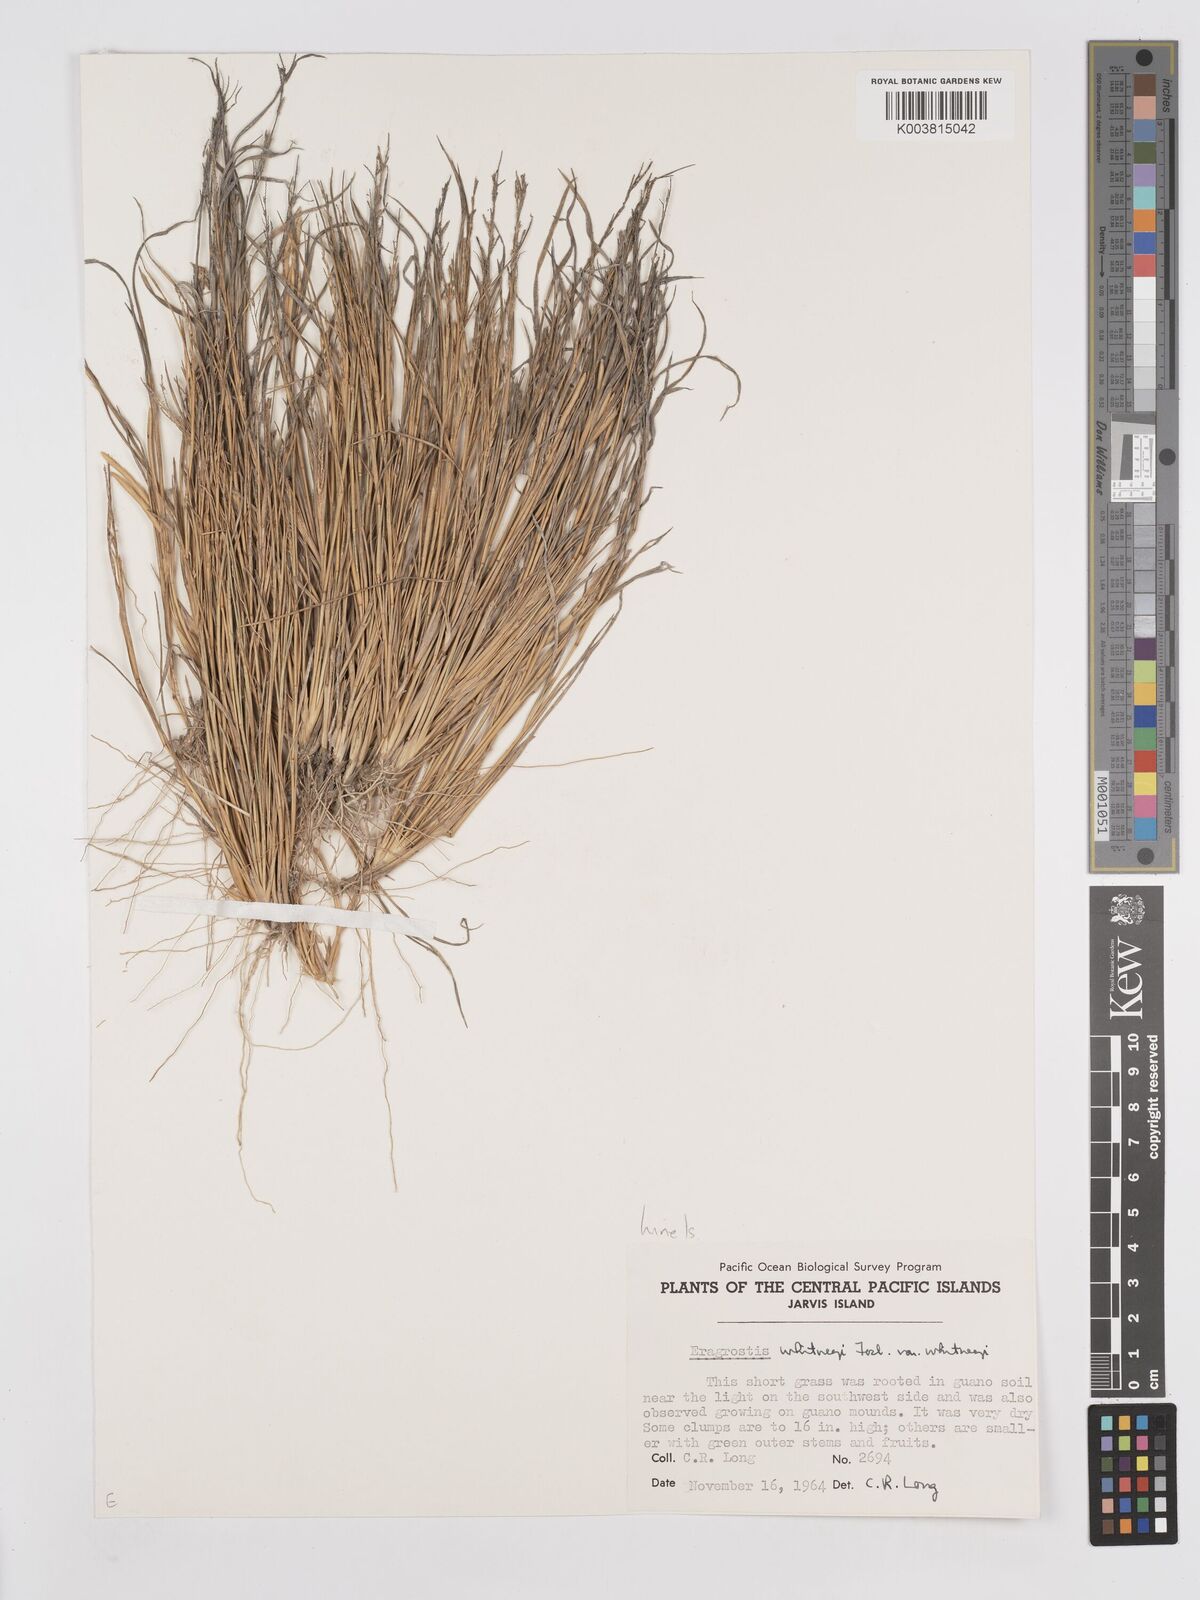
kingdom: Plantae
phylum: Tracheophyta
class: Liliopsida
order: Poales
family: Poaceae
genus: Eragrostis
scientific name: Eragrostis paupera
